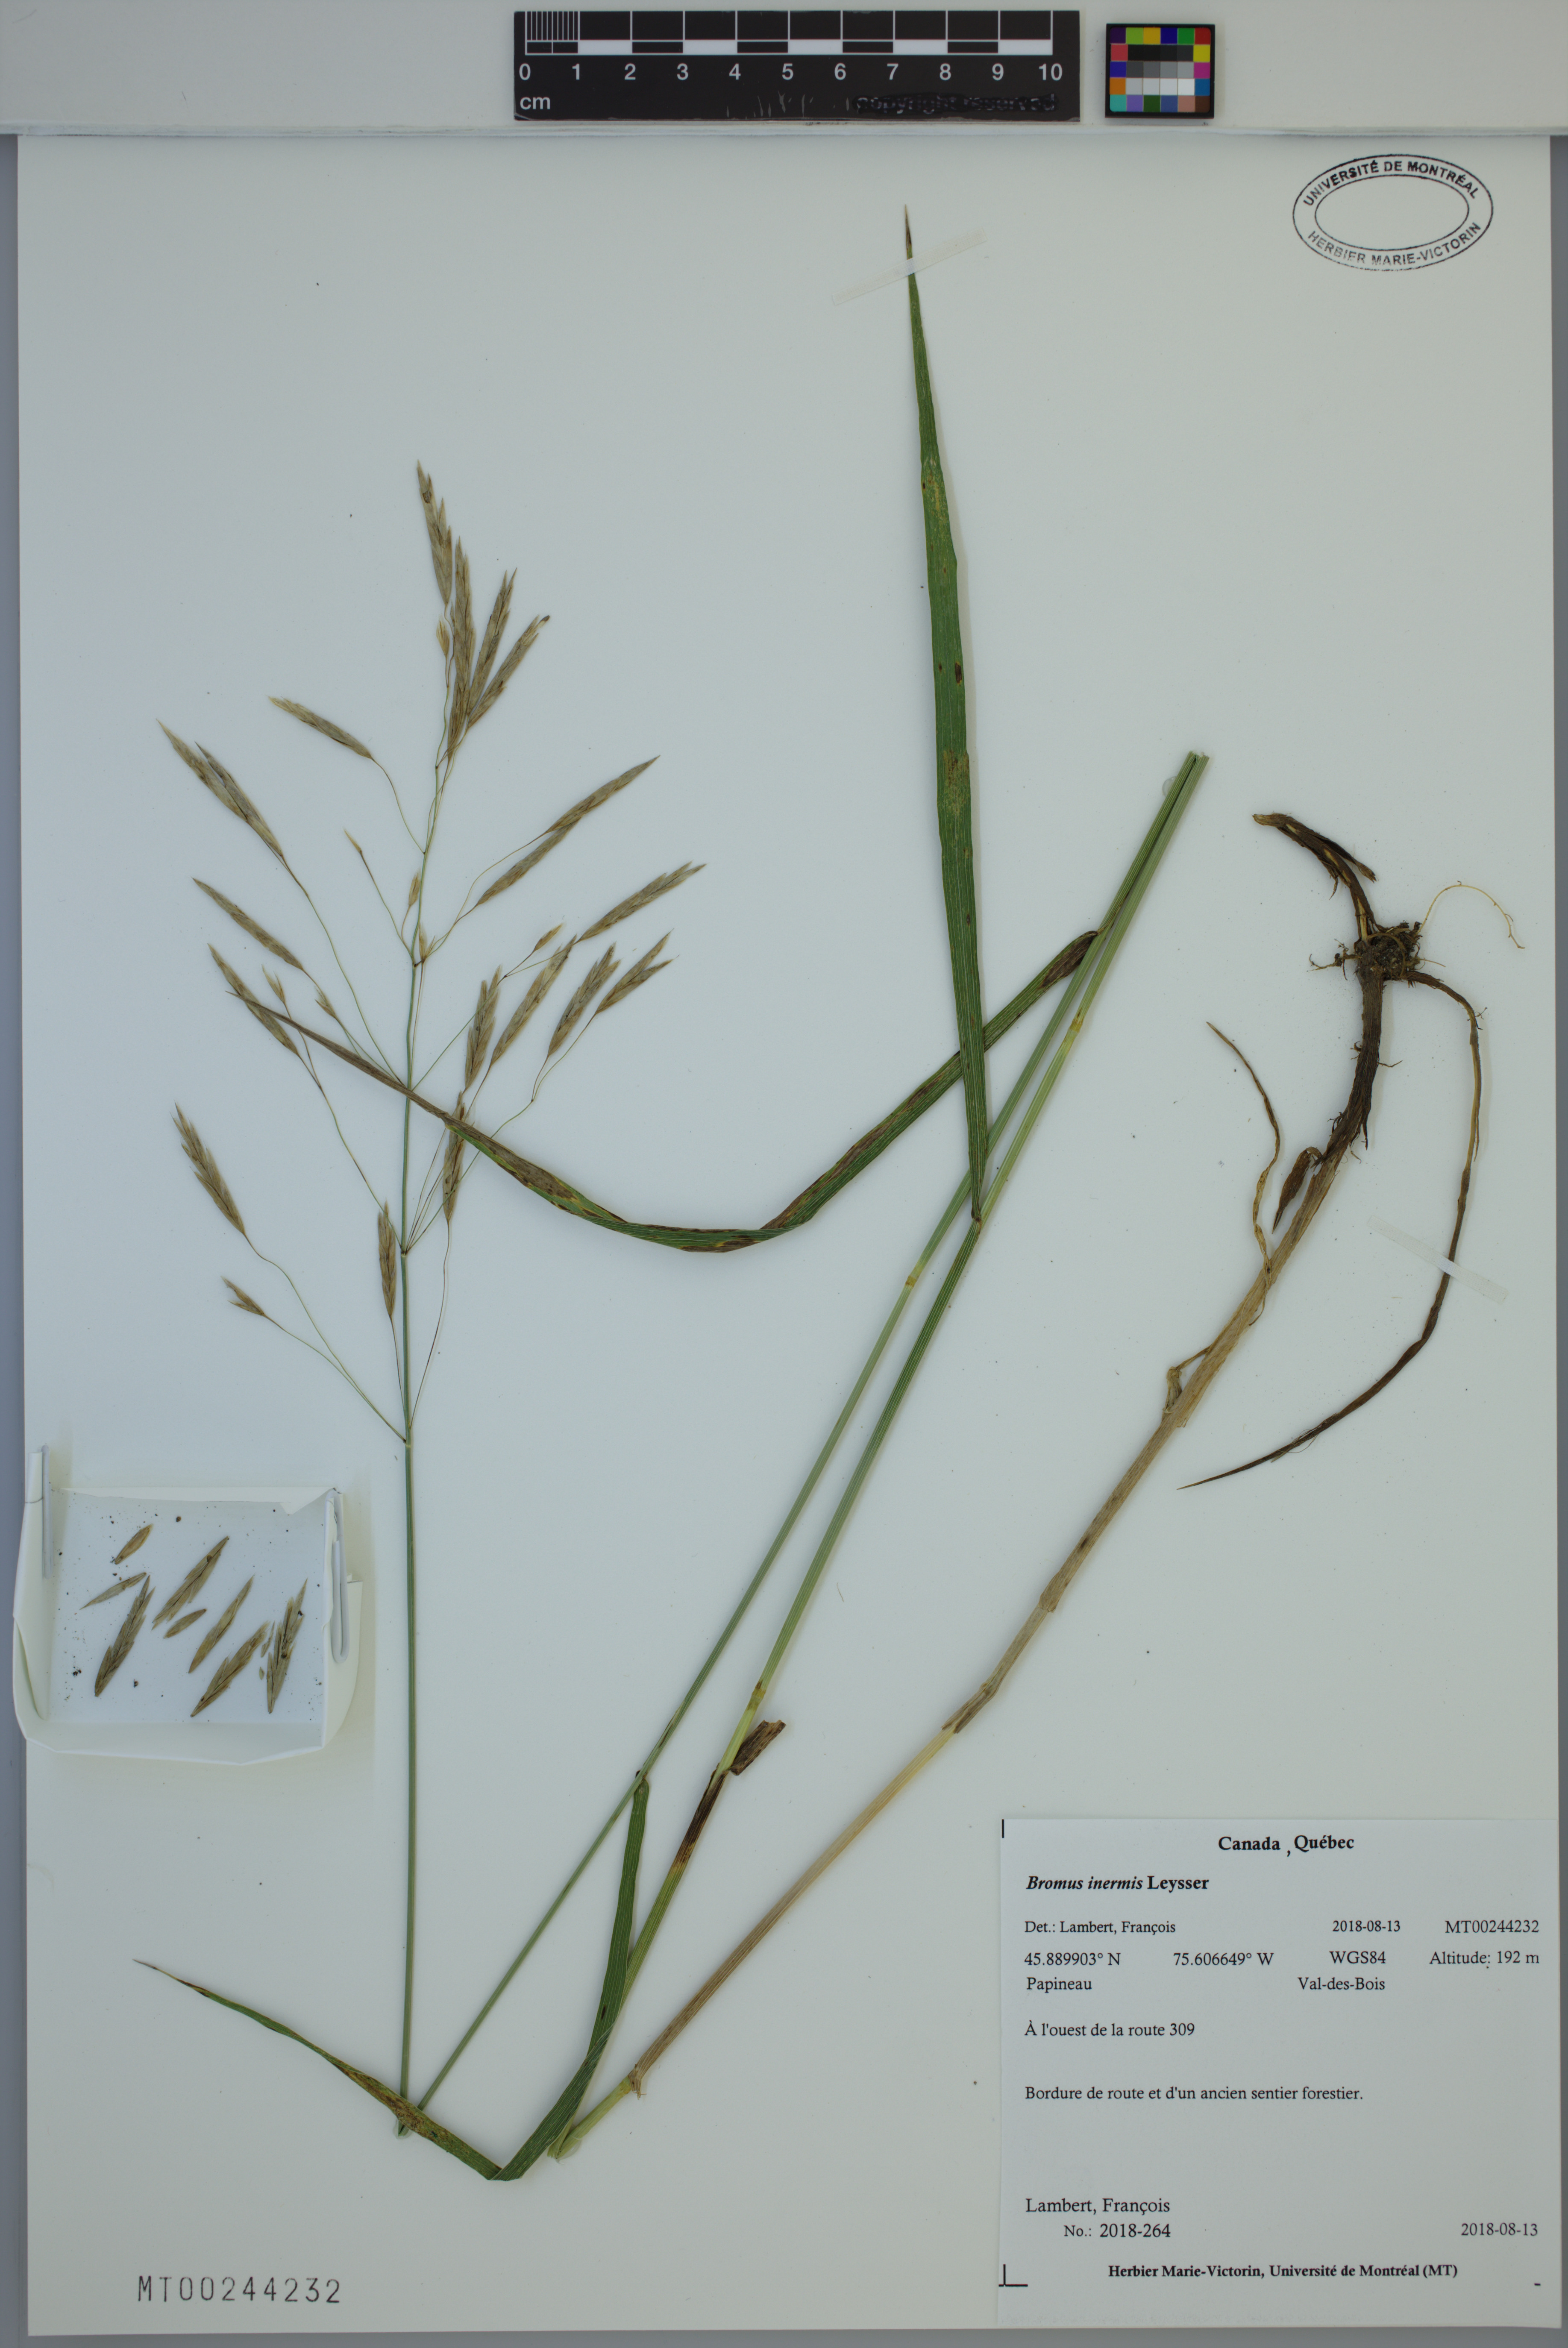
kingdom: Plantae
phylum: Tracheophyta
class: Liliopsida
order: Poales
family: Poaceae
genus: Bromus
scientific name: Bromus inermis
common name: Smooth brome
